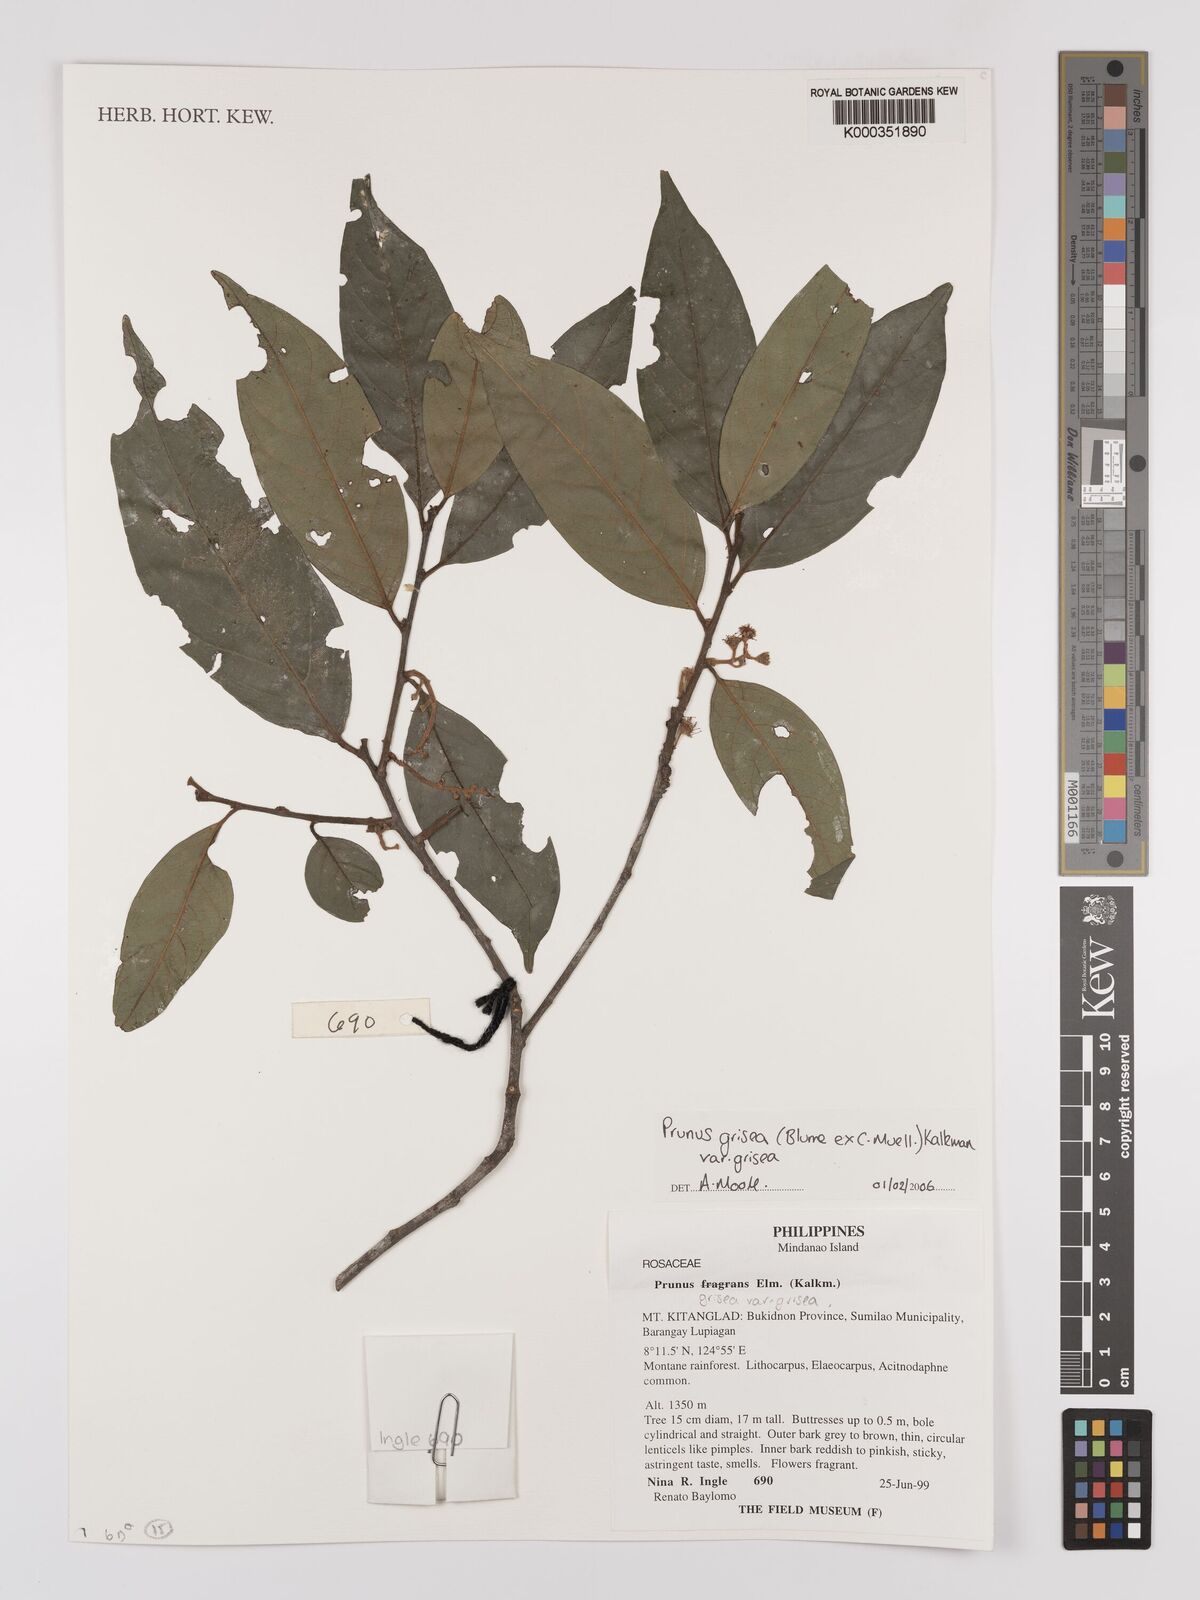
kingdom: Plantae
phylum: Tracheophyta
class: Magnoliopsida
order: Rosales
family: Rosaceae
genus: Prunus
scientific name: Prunus grisea
